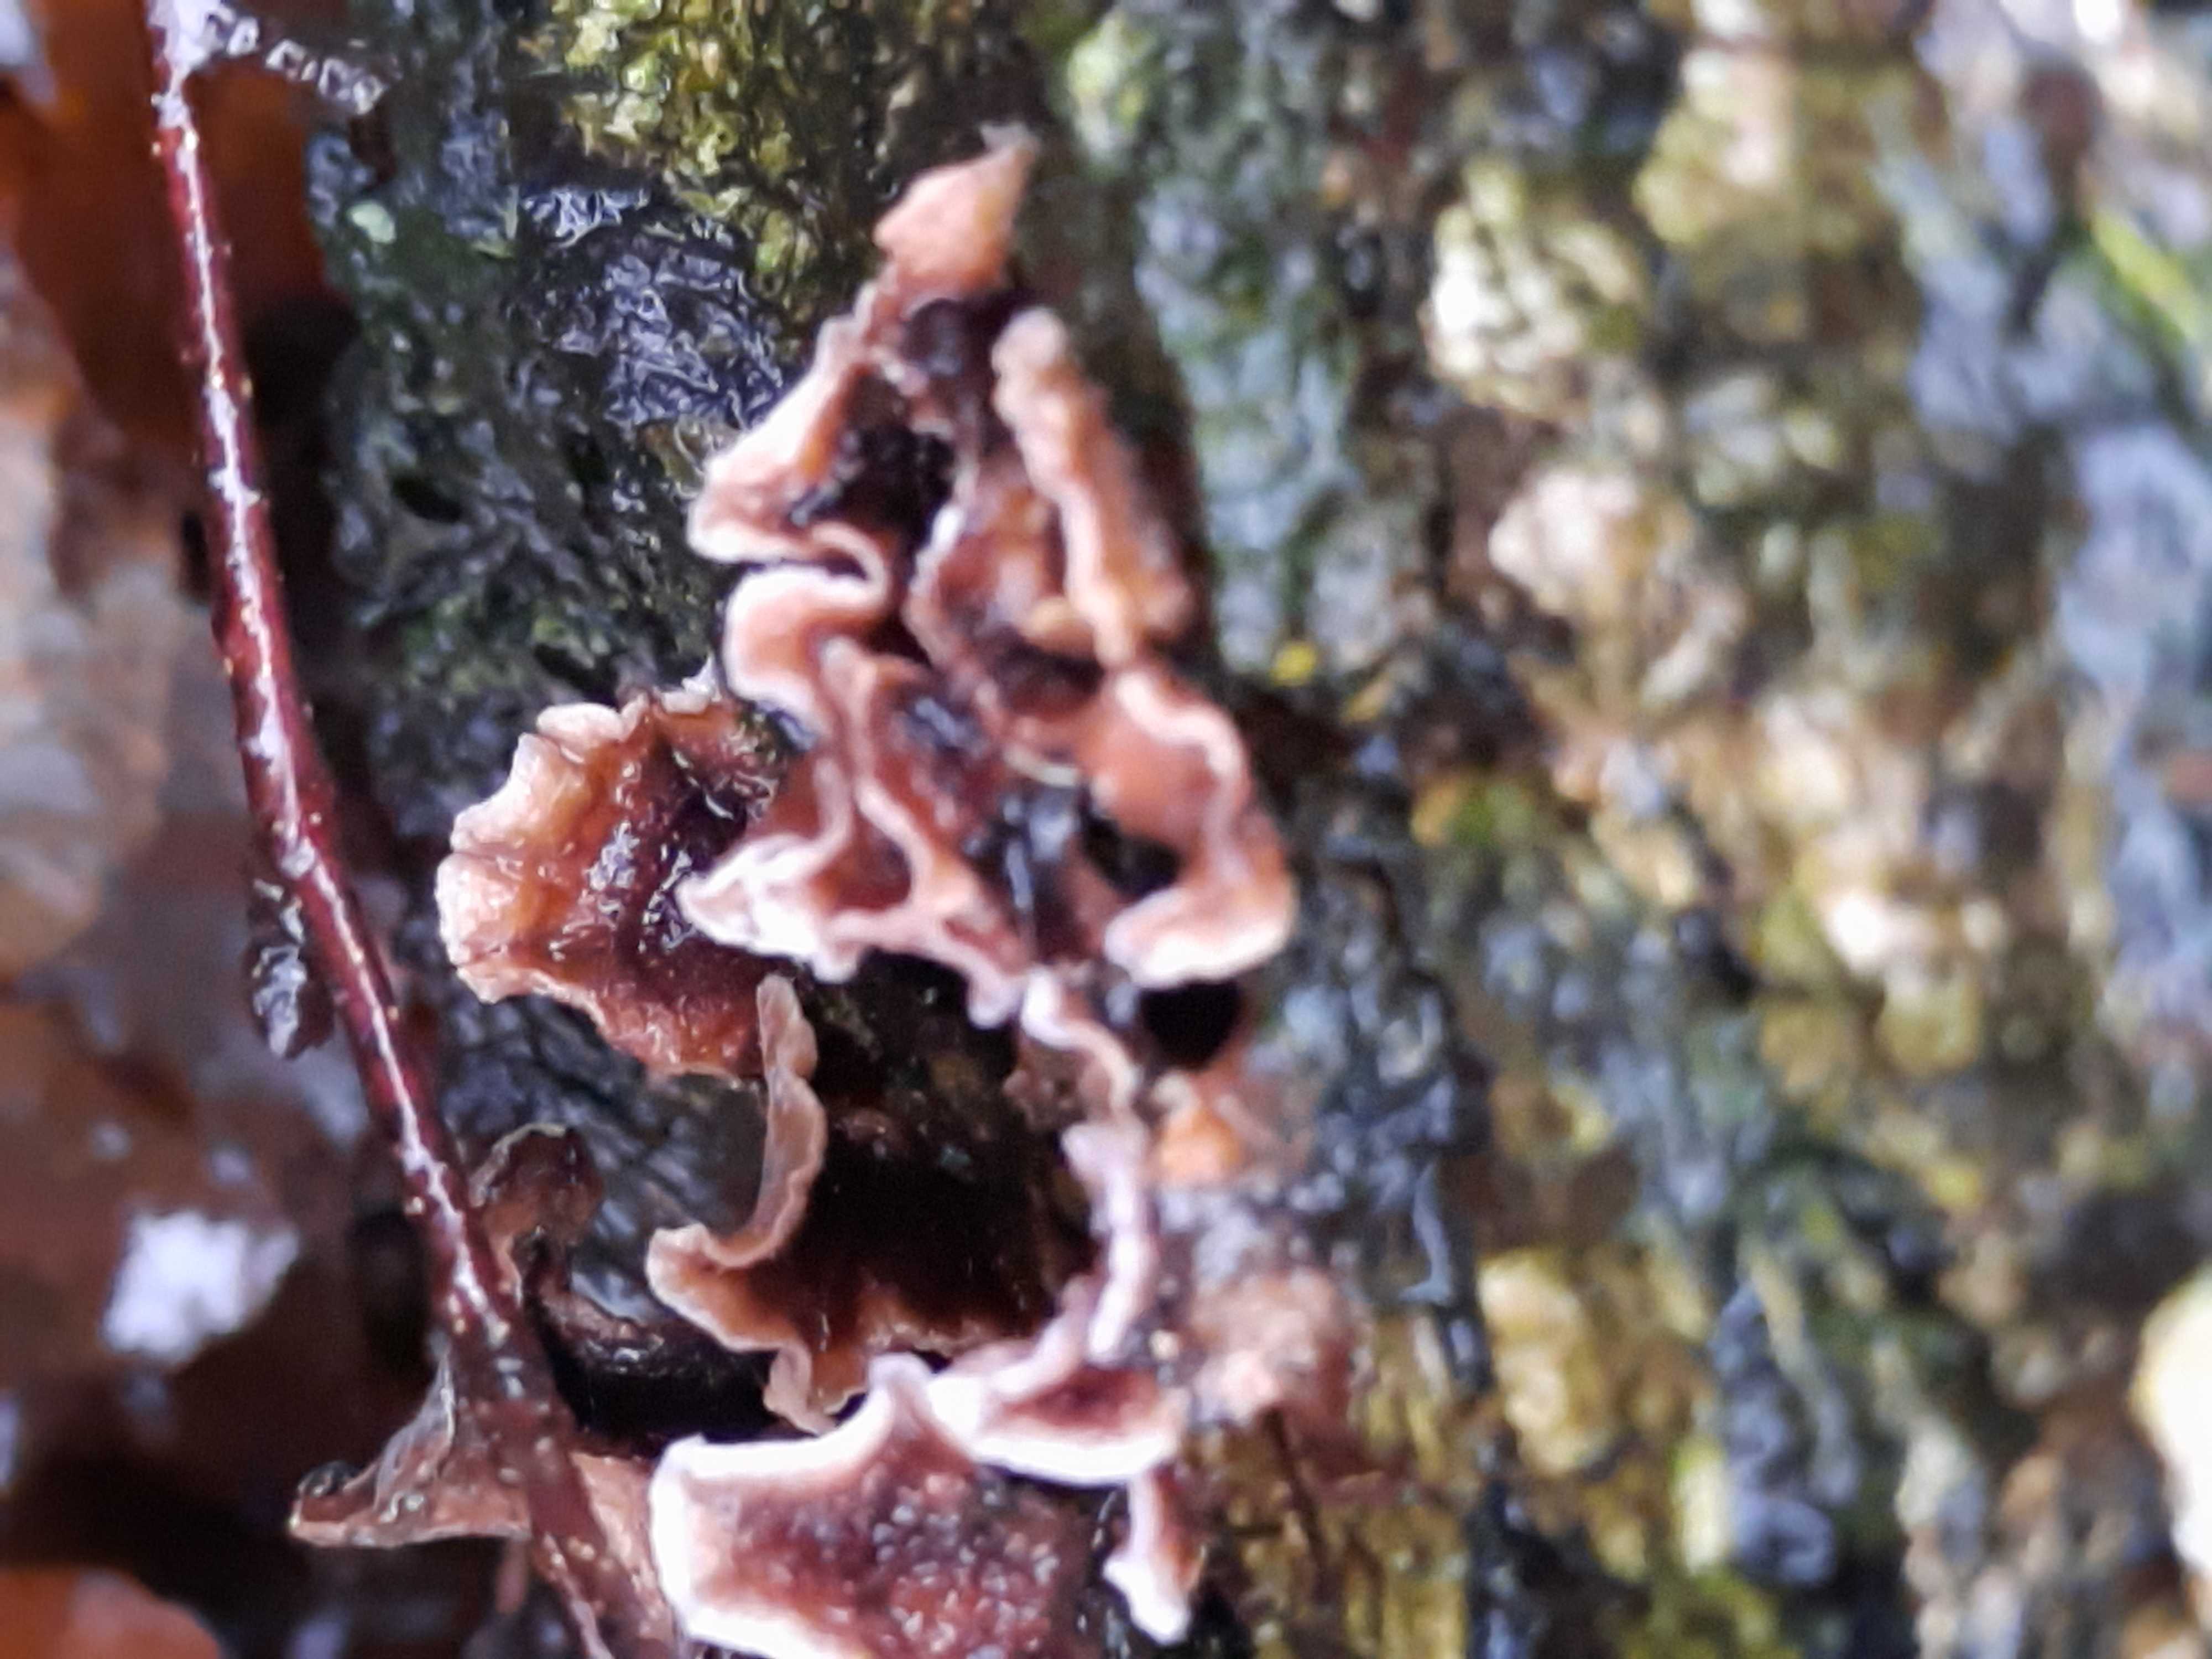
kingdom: Fungi
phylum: Basidiomycota
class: Agaricomycetes
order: Agaricales
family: Cyphellaceae
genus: Chondrostereum
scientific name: Chondrostereum purpureum
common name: purpurlædersvamp
